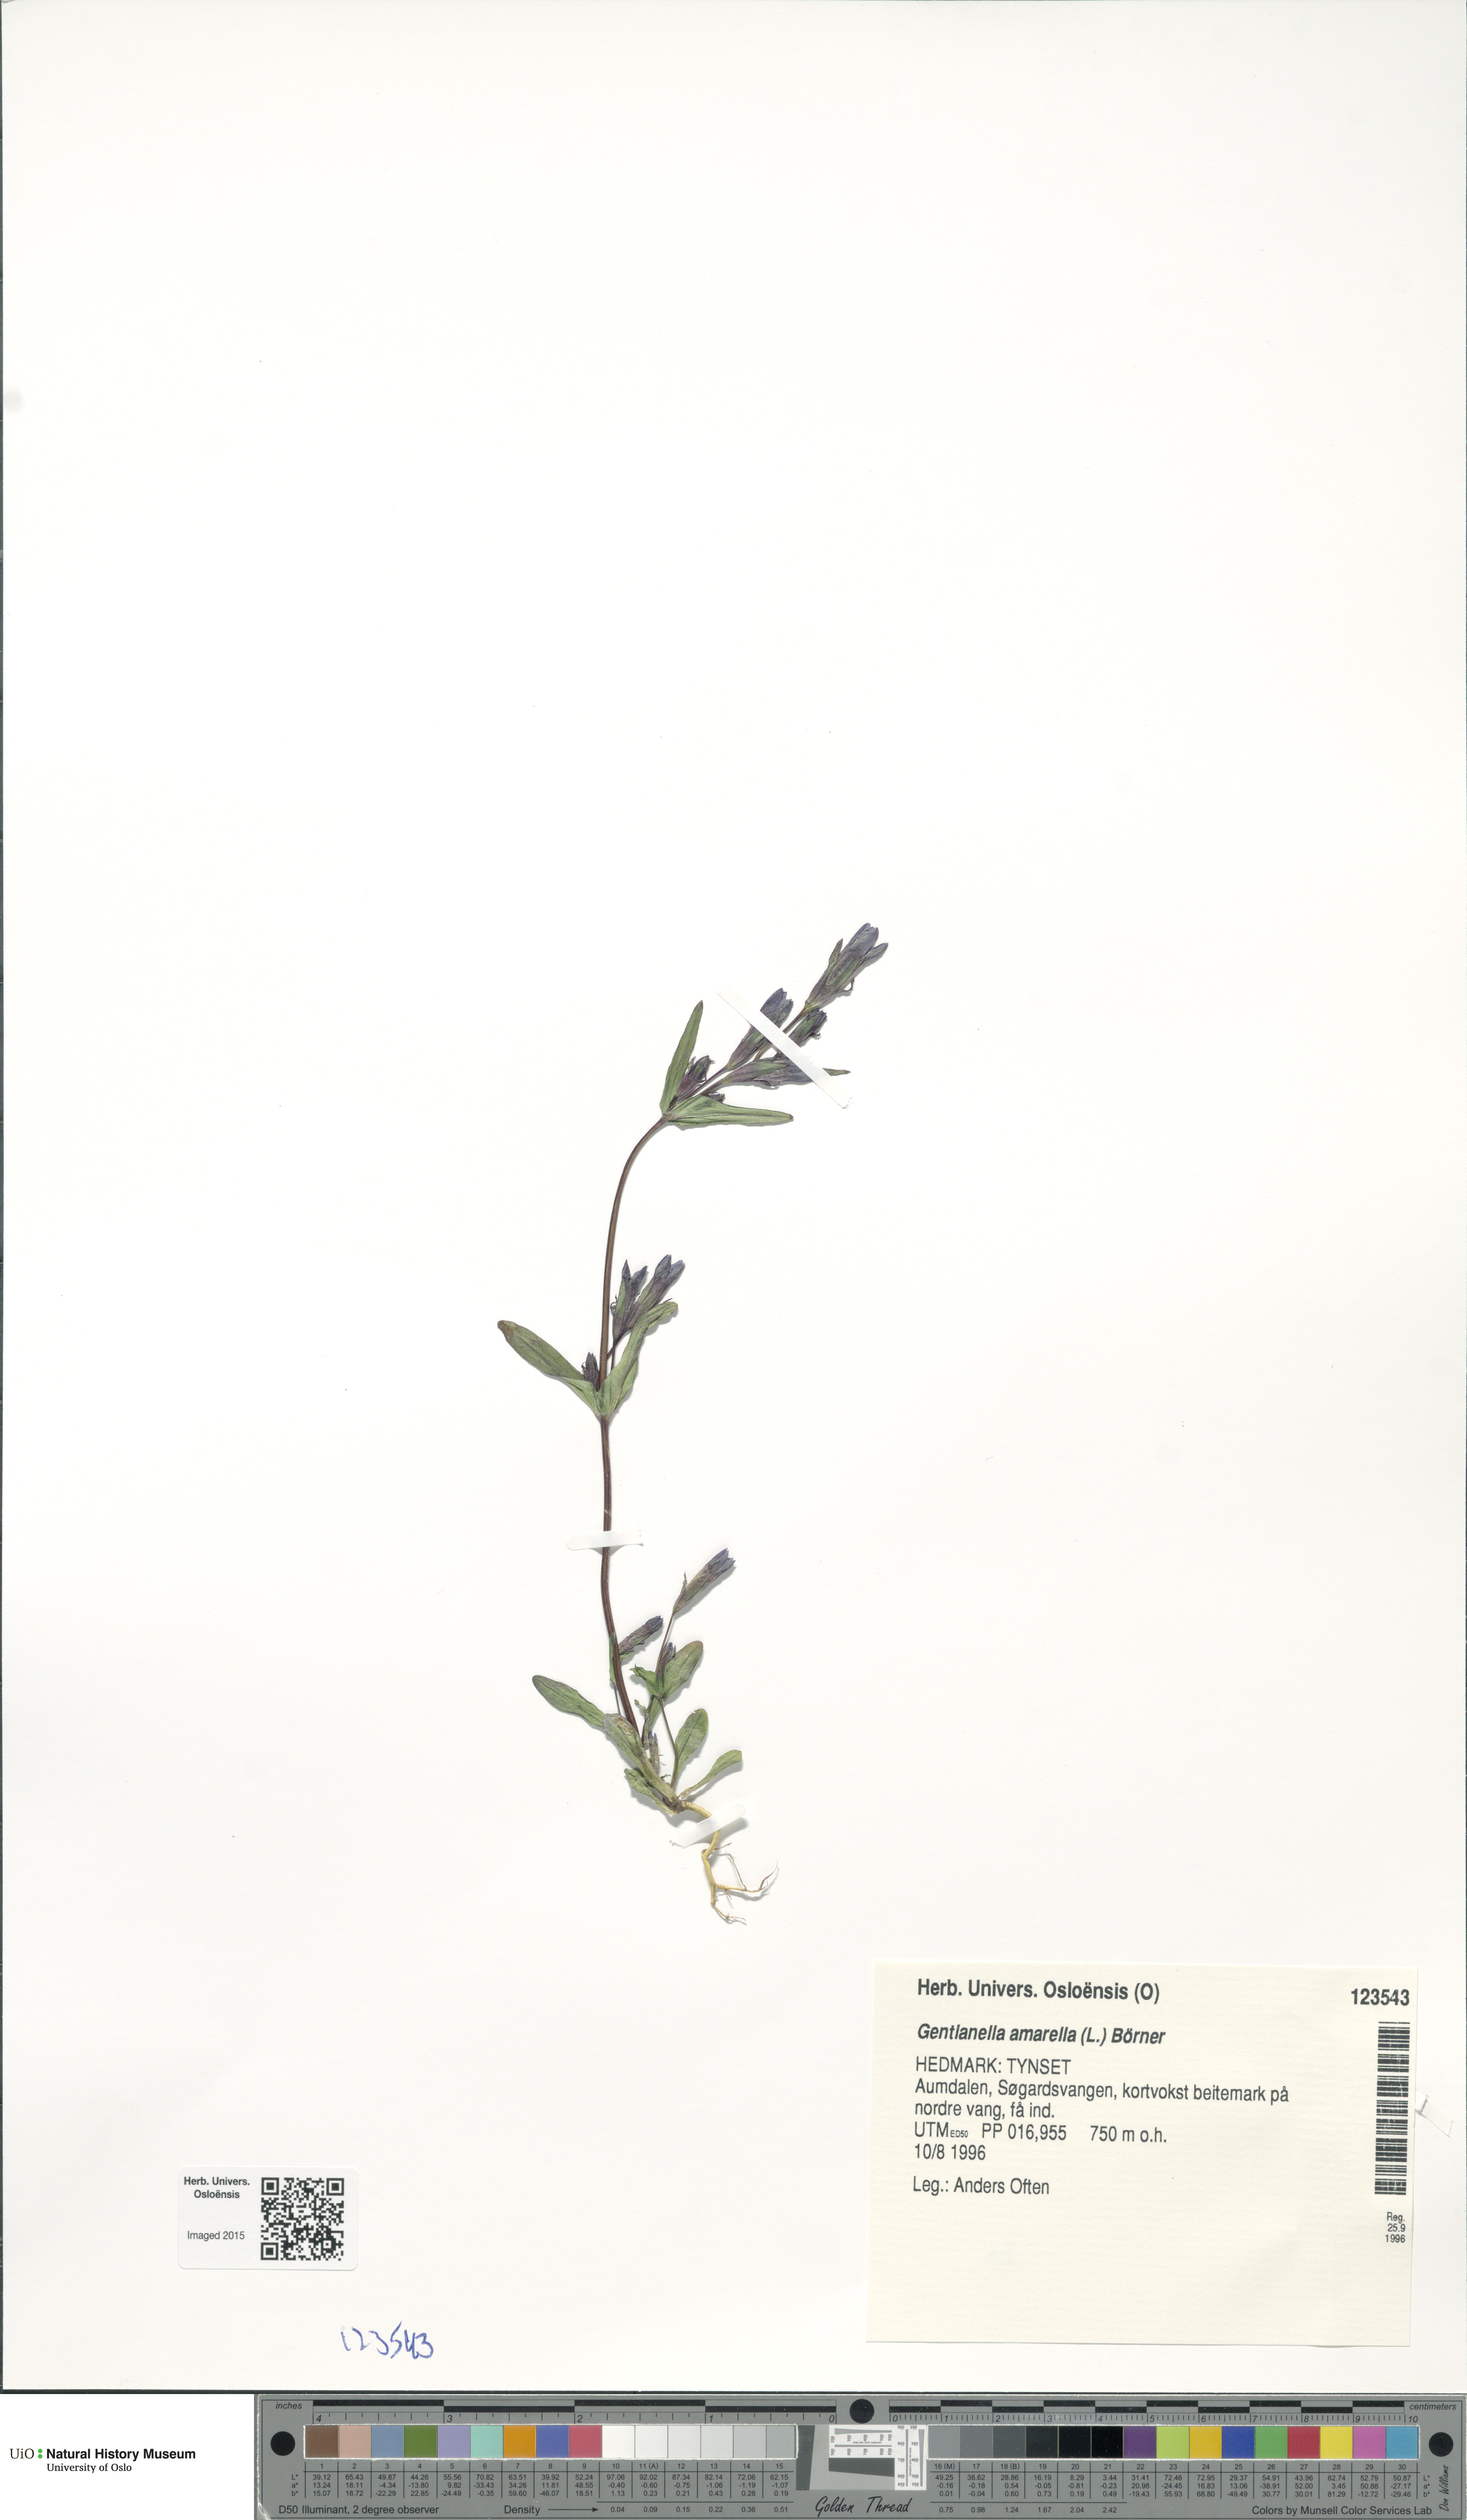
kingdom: Plantae
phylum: Tracheophyta
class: Magnoliopsida
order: Gentianales
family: Gentianaceae
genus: Gentianella
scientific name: Gentianella amarella
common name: Autumn gentian
